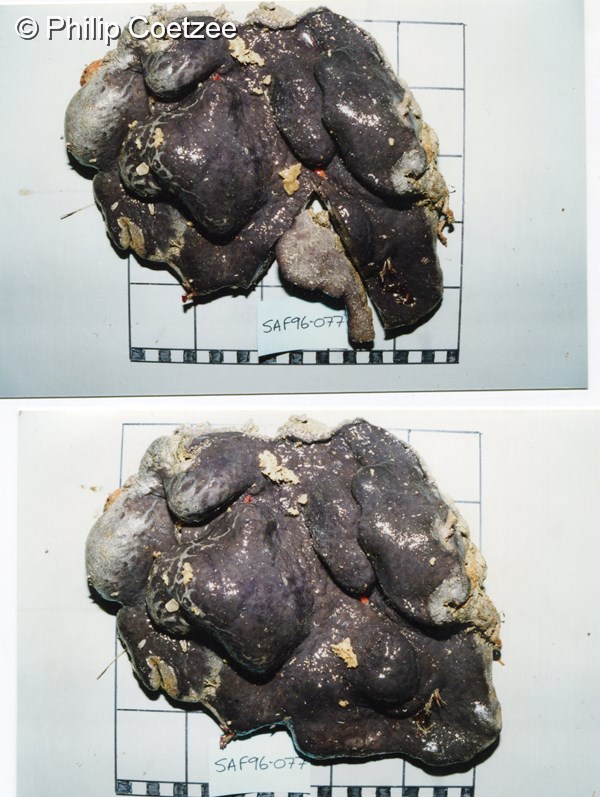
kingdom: Animalia
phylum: Chordata
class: Ascidiacea
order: Aplousobranchia
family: Polyclinidae
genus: Aplidium
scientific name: Aplidium
